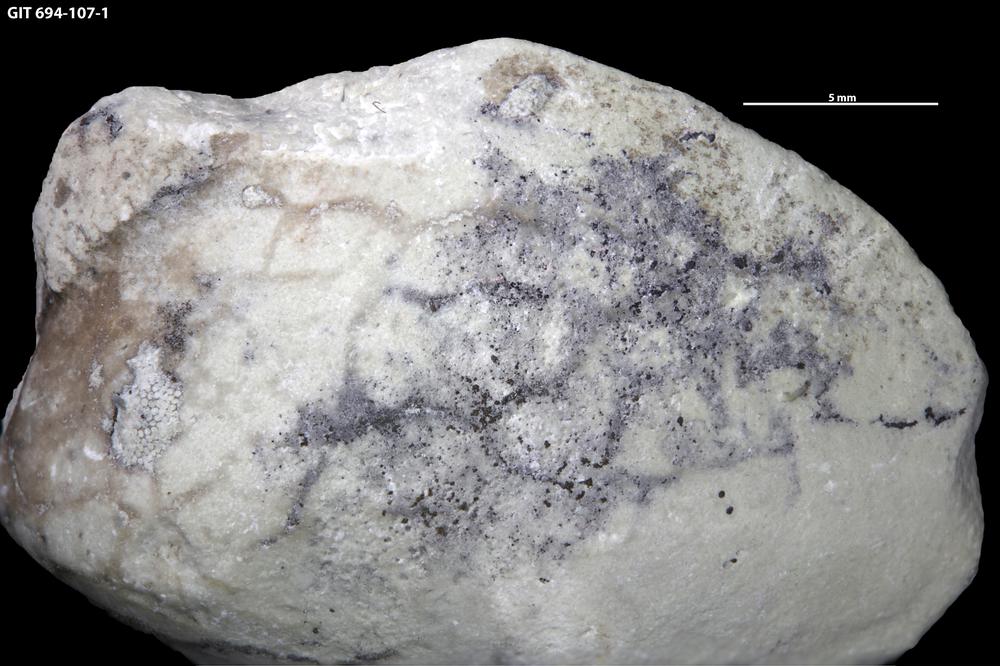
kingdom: Animalia
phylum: Annelida
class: Polychaeta
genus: Arachnostega
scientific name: Arachnostega gastrochaenae
